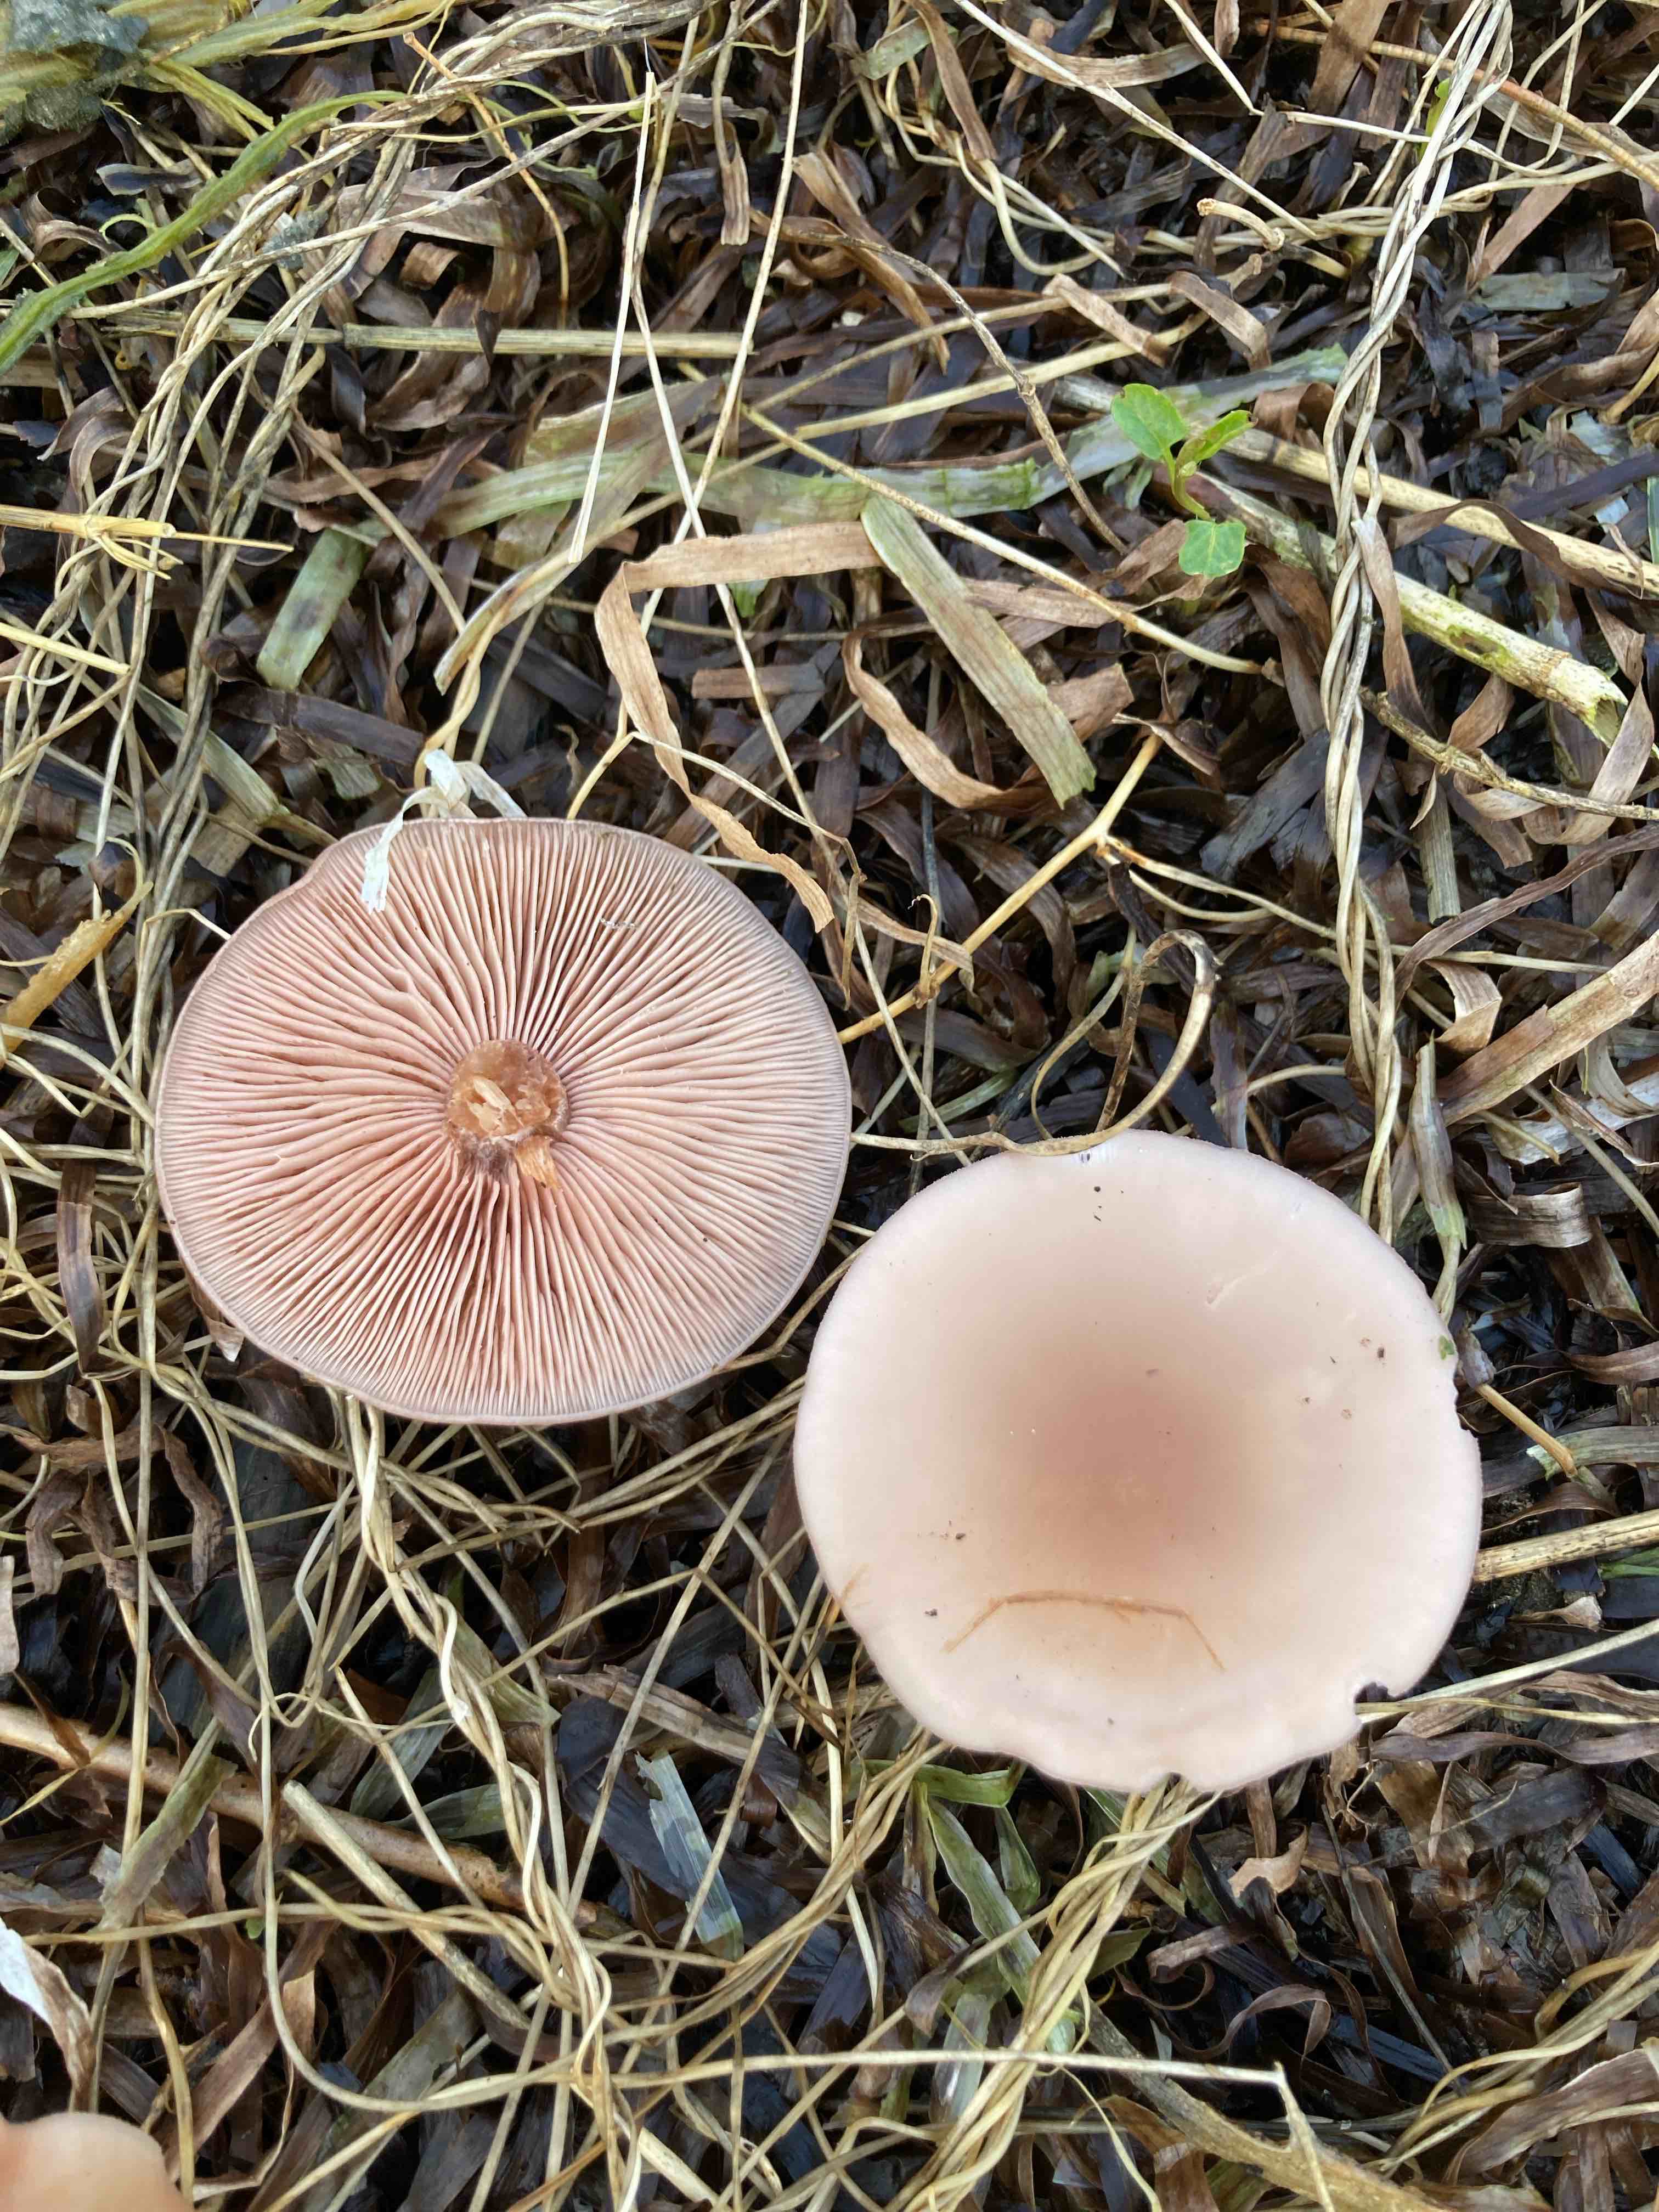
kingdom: Fungi
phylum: Basidiomycota
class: Agaricomycetes
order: Agaricales
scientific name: Agaricales
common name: champignonordenen
